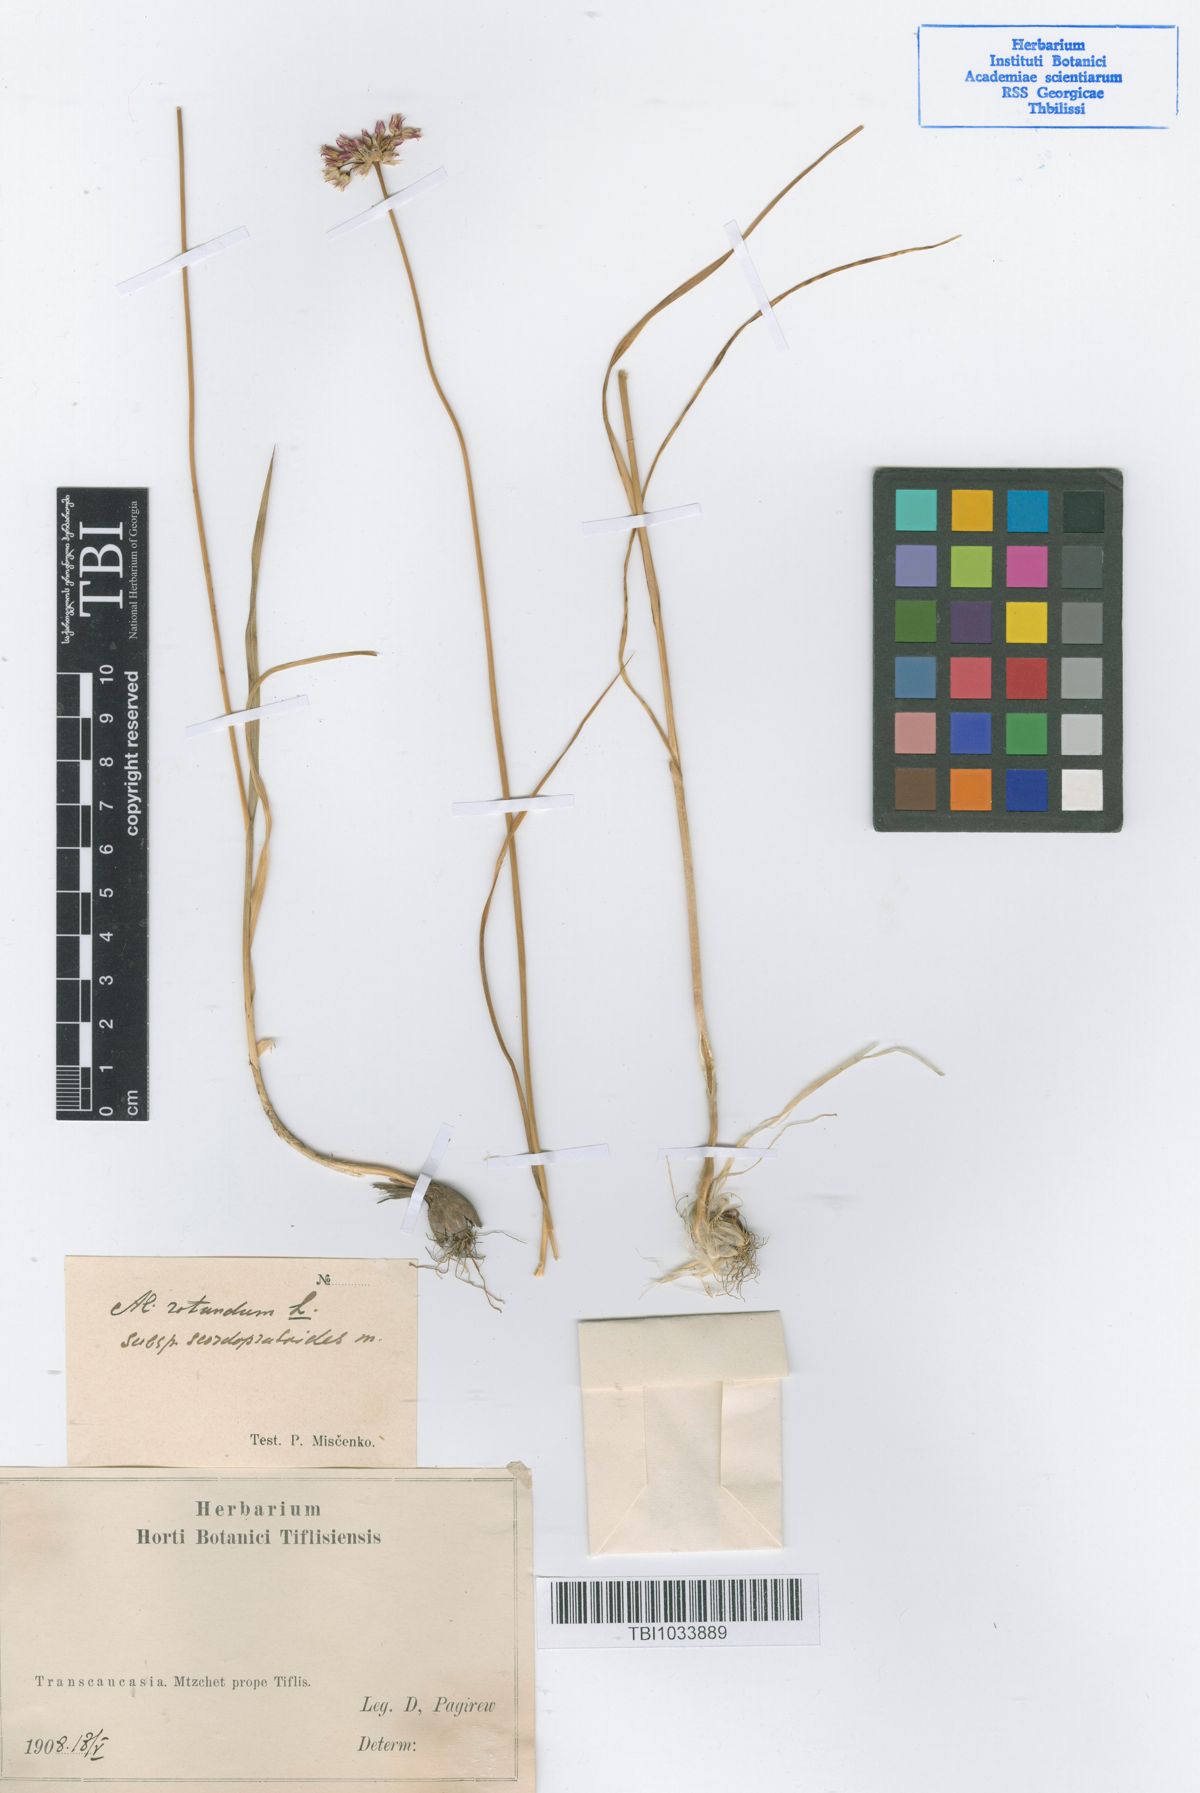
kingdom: Plantae
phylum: Tracheophyta
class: Liliopsida
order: Asparagales
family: Amaryllidaceae
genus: Allium
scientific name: Allium rotundum
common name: Sand leek
